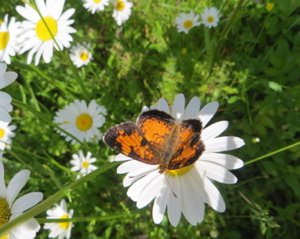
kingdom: Animalia
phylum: Arthropoda
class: Insecta
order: Lepidoptera
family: Nymphalidae
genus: Phyciodes
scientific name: Phyciodes tharos
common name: Northern Crescent
